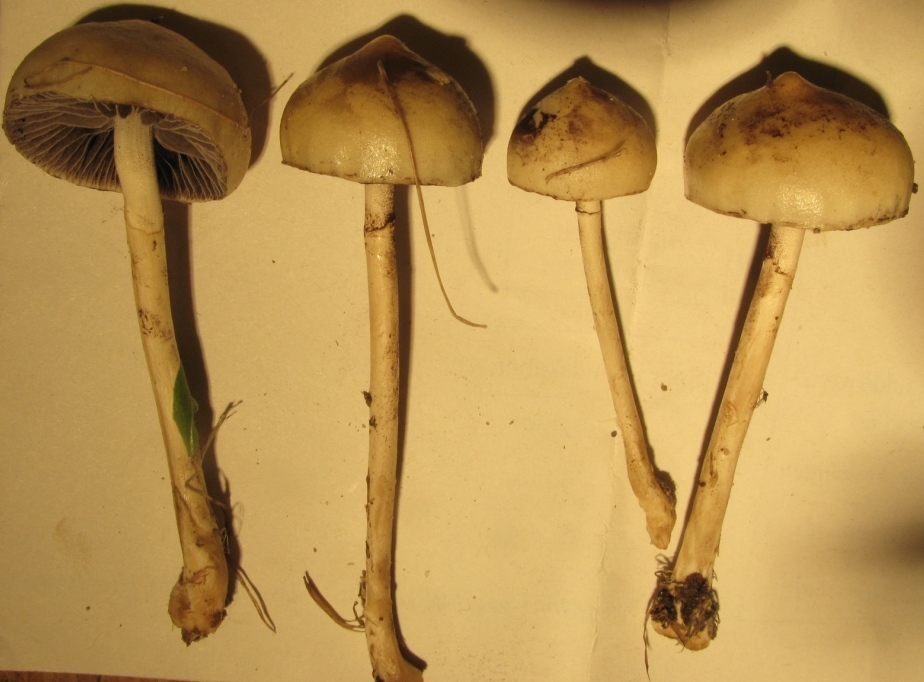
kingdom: Fungi
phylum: Basidiomycota
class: Agaricomycetes
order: Agaricales
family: Strophariaceae
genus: Protostropharia
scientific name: Protostropharia semiglobata
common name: halvkugleformet bredblad
